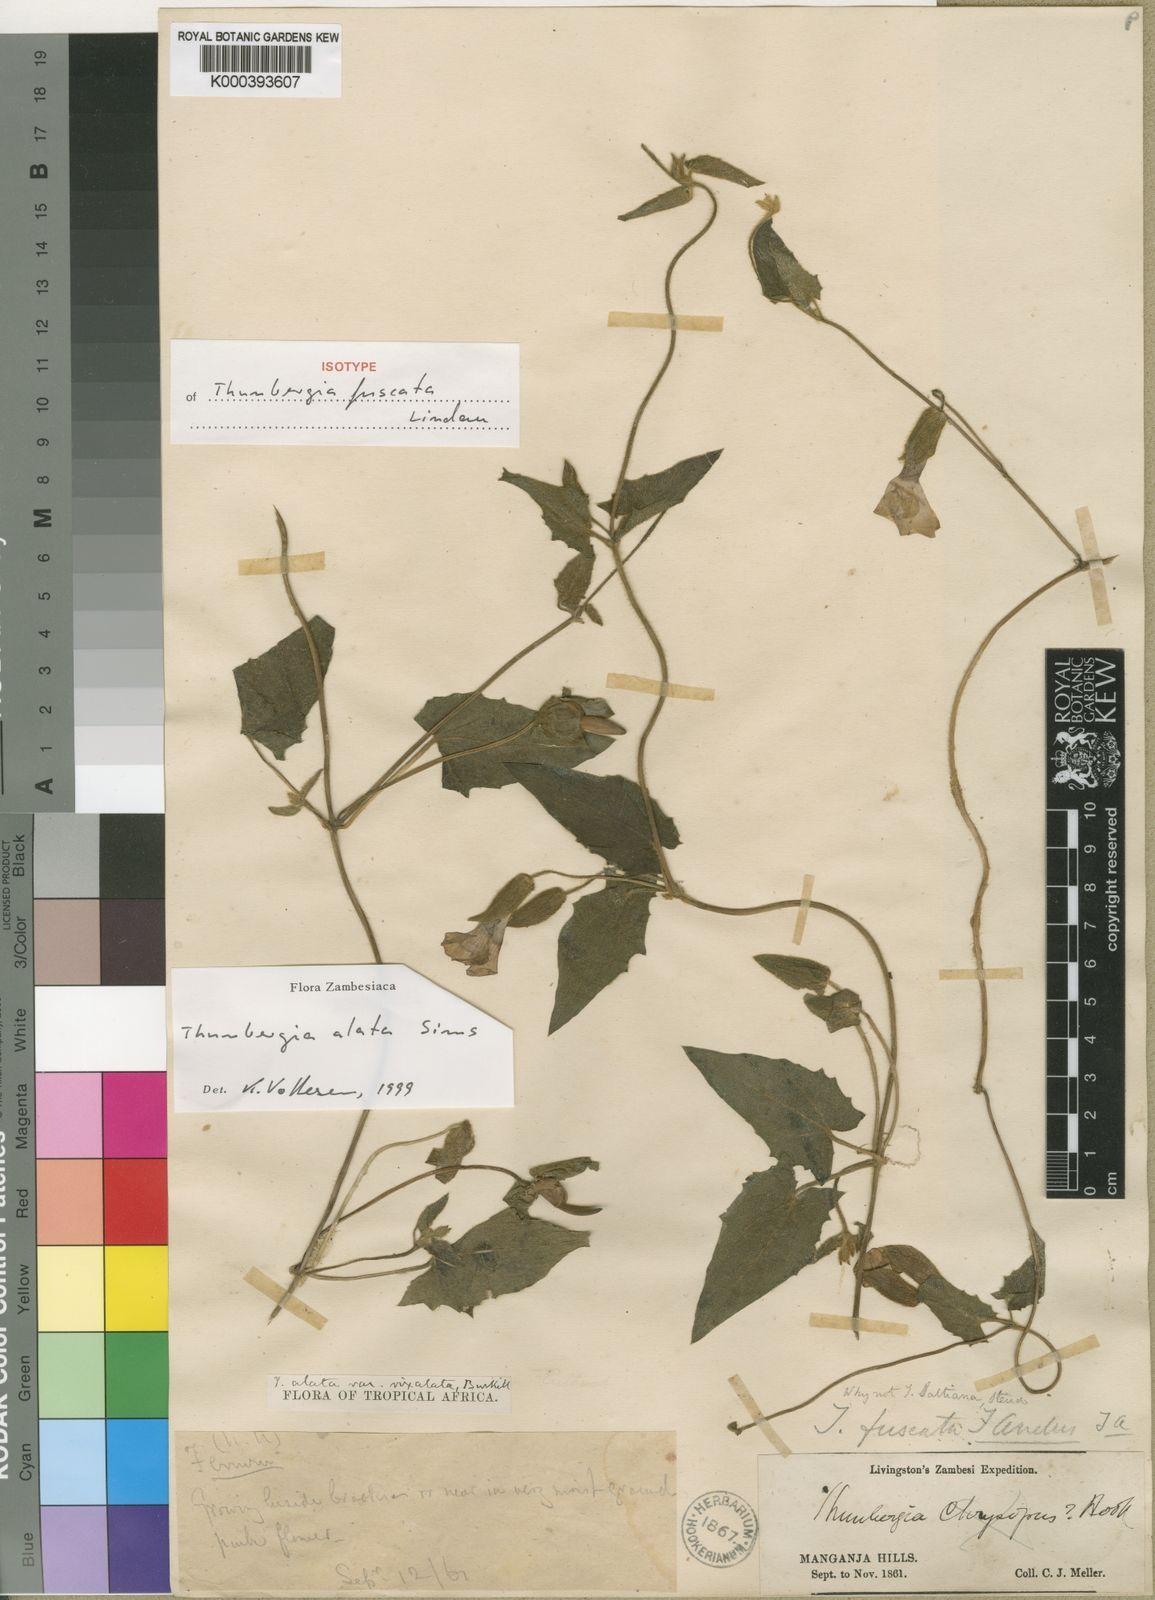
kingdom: Plantae
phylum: Tracheophyta
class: Magnoliopsida
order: Lamiales
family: Acanthaceae
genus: Thunbergia
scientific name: Thunbergia alata
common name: Blackeyed susan vine
